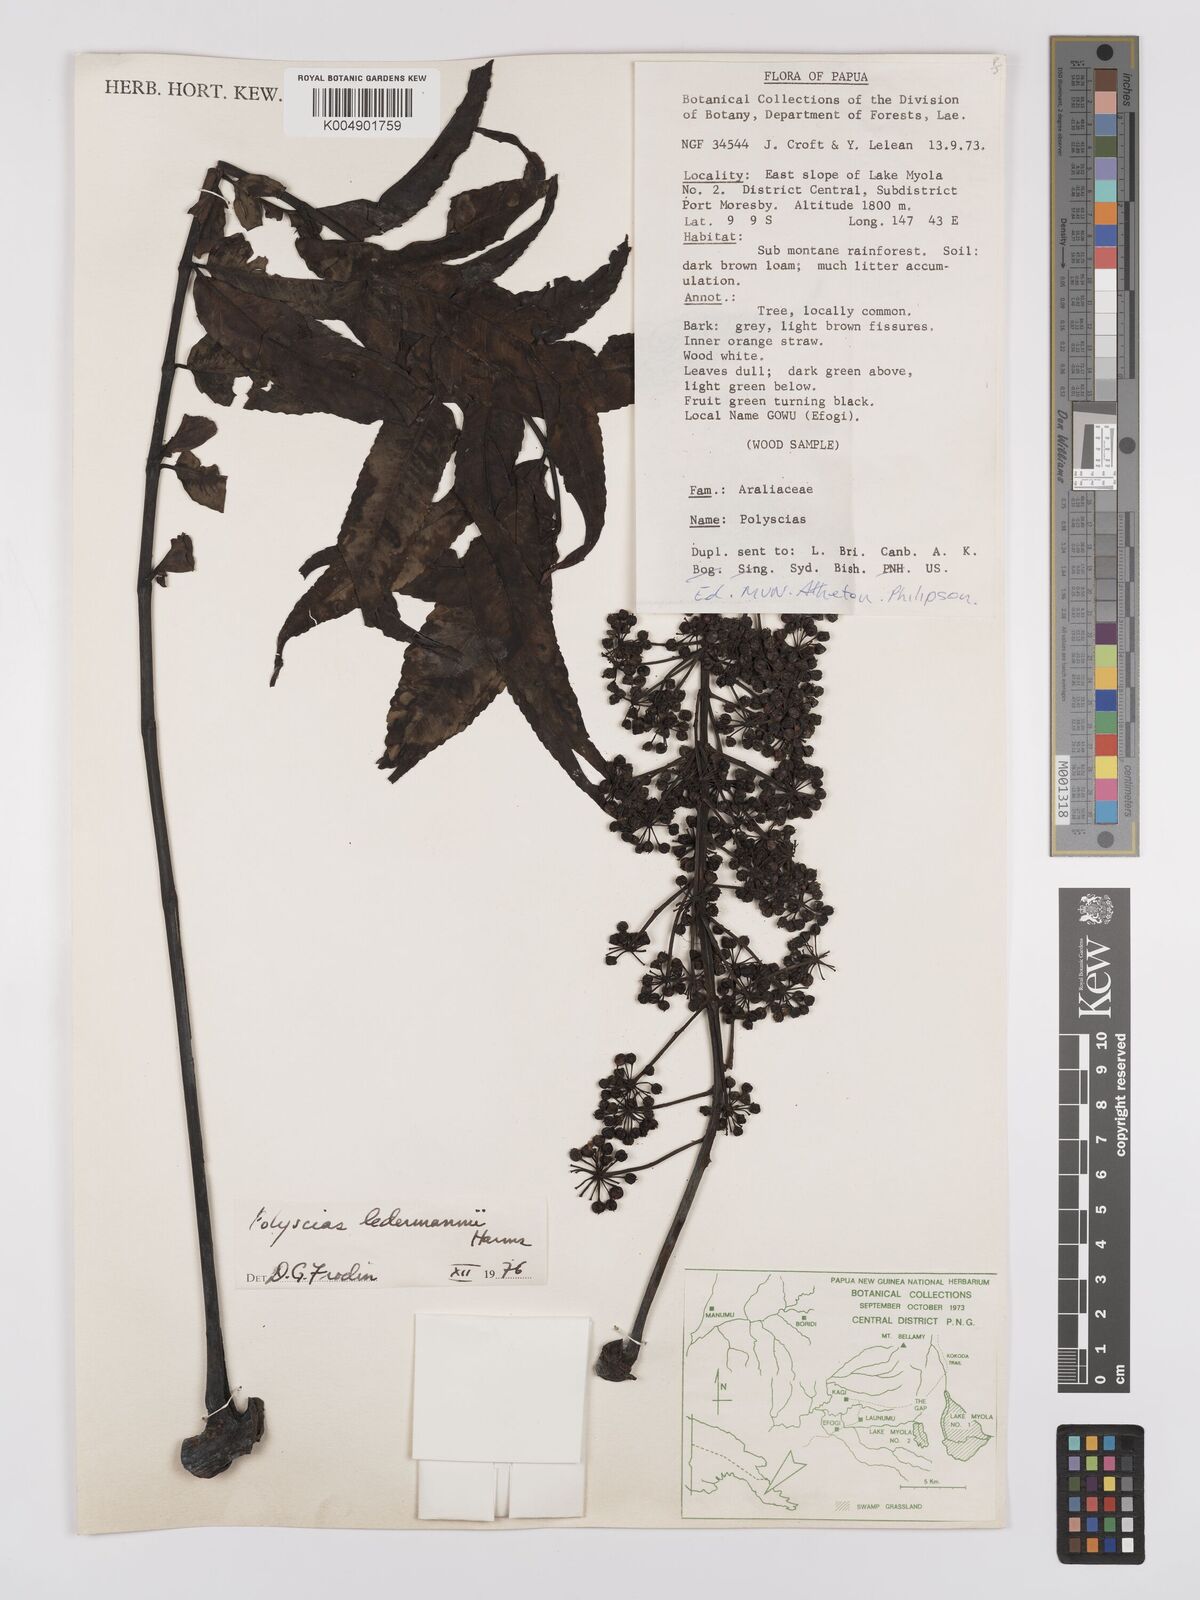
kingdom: Plantae
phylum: Tracheophyta
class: Magnoliopsida
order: Apiales
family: Araliaceae
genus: Polyscias
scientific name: Polyscias ledermannii
